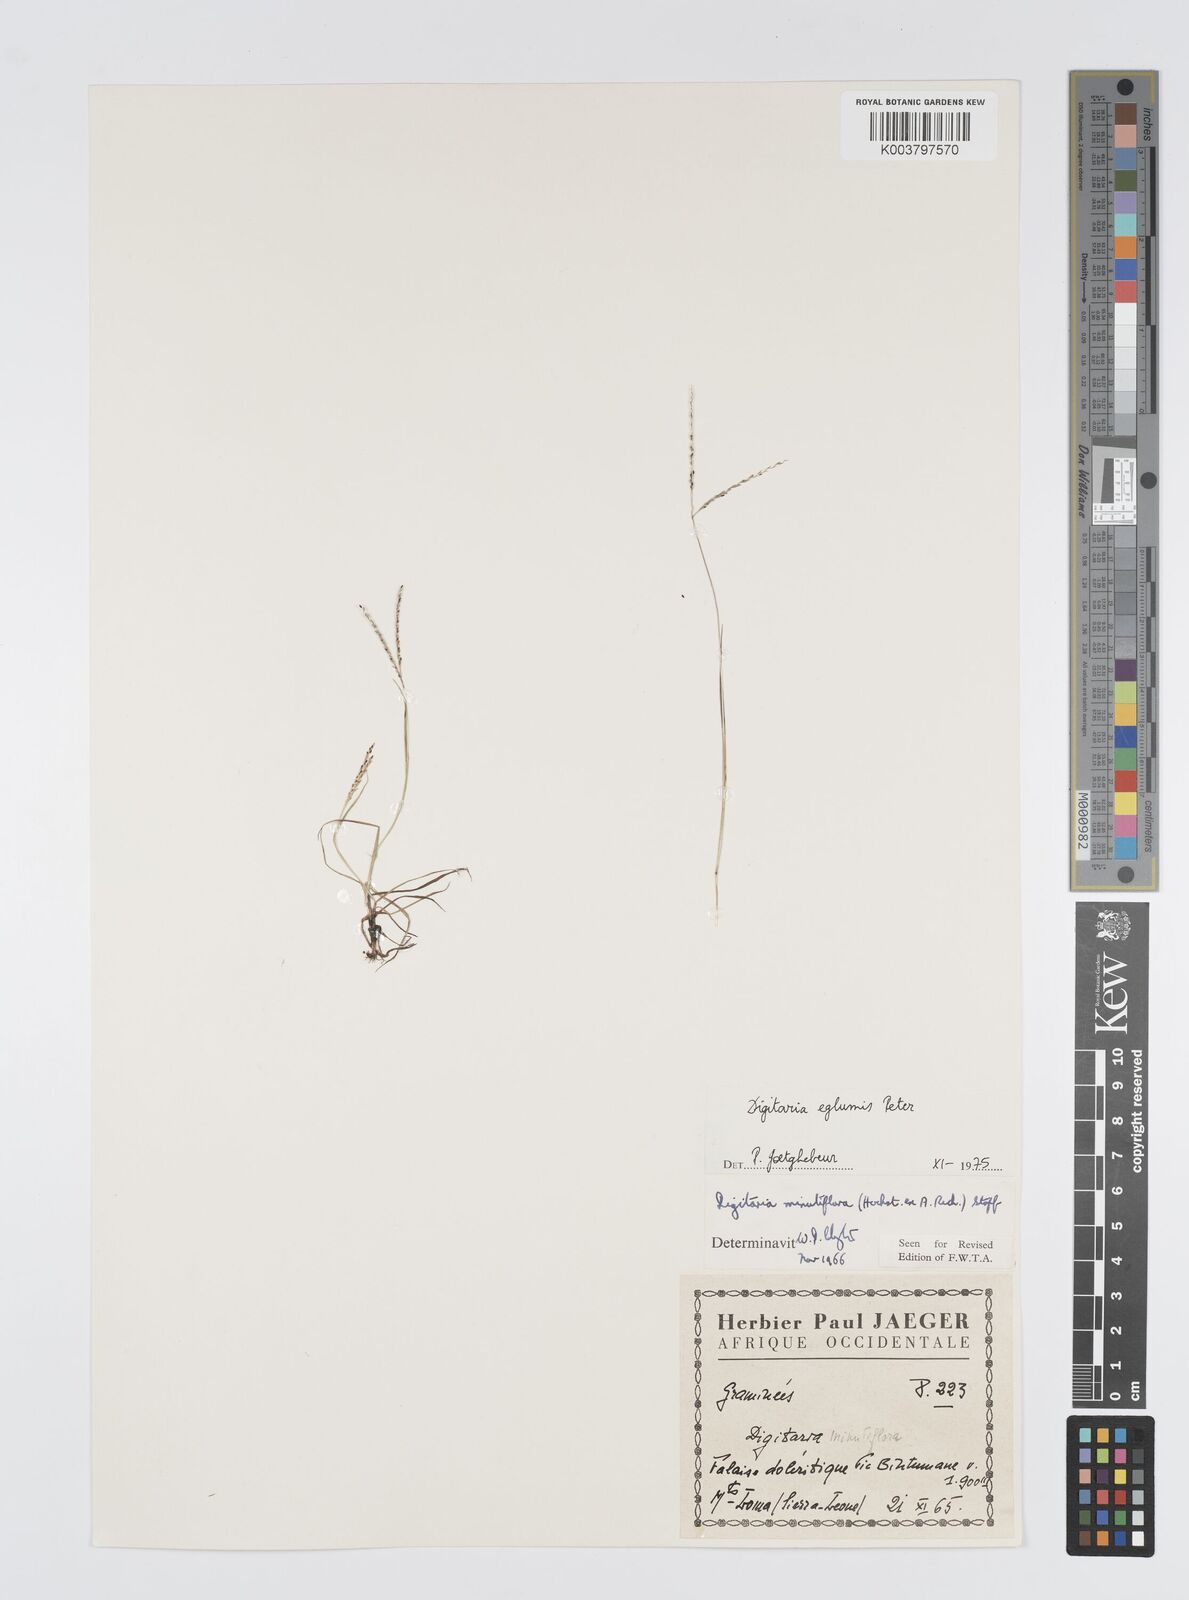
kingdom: Plantae
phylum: Tracheophyta
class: Liliopsida
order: Poales
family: Poaceae
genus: Digitaria
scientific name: Digitaria pseudodiagonalis
